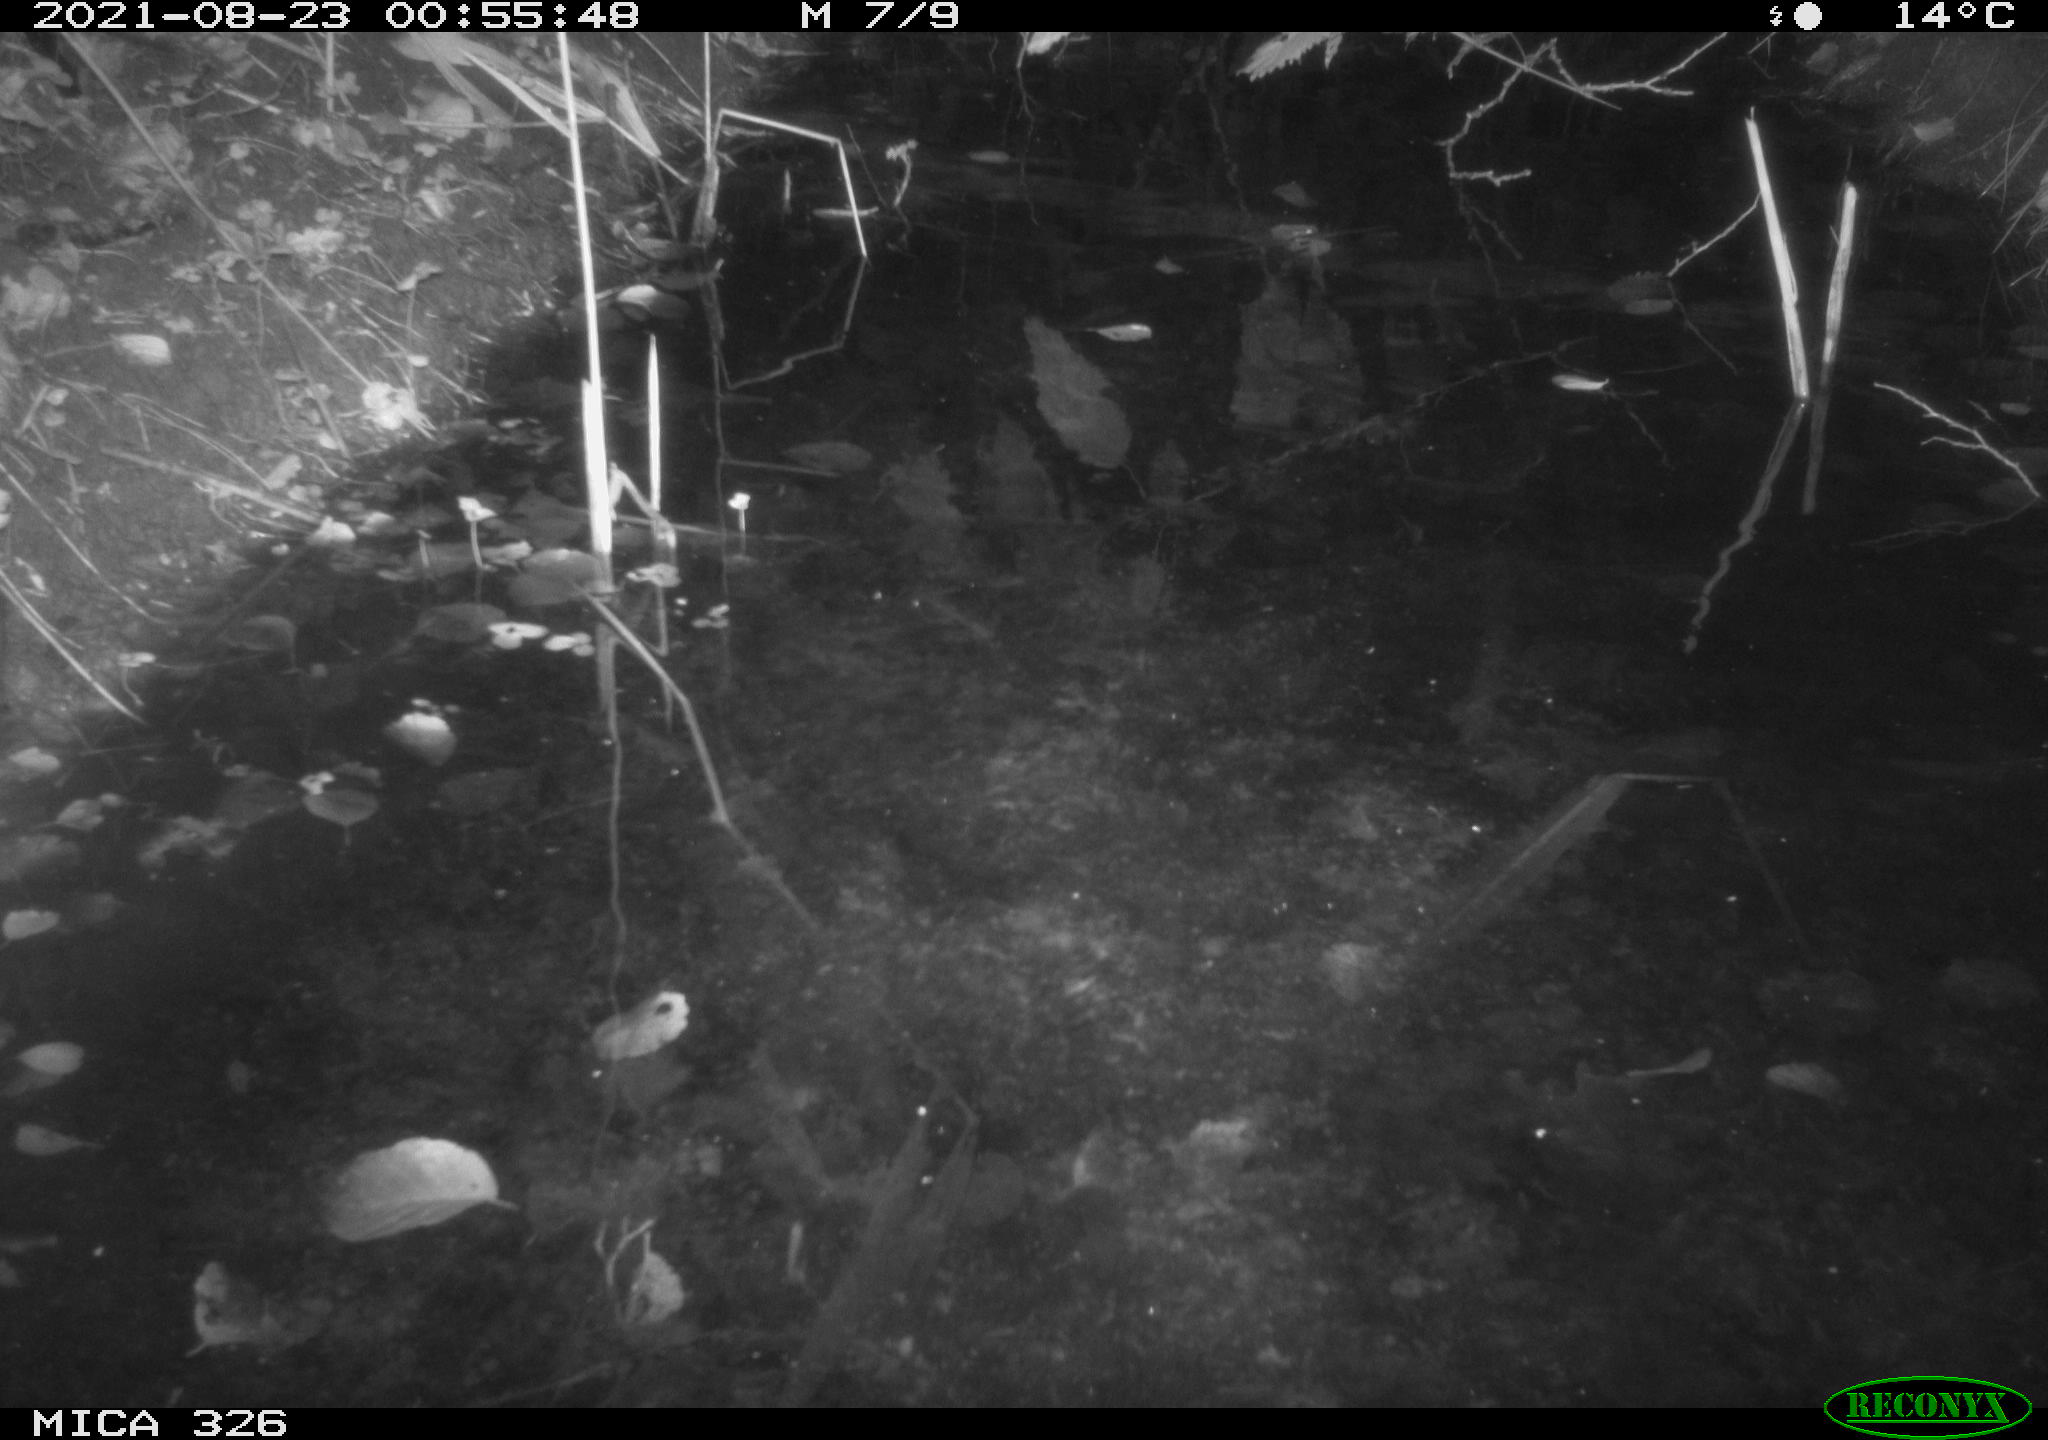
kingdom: Animalia
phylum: Chordata
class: Mammalia
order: Rodentia
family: Cricetidae
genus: Ondatra
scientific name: Ondatra zibethicus
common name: Muskrat
